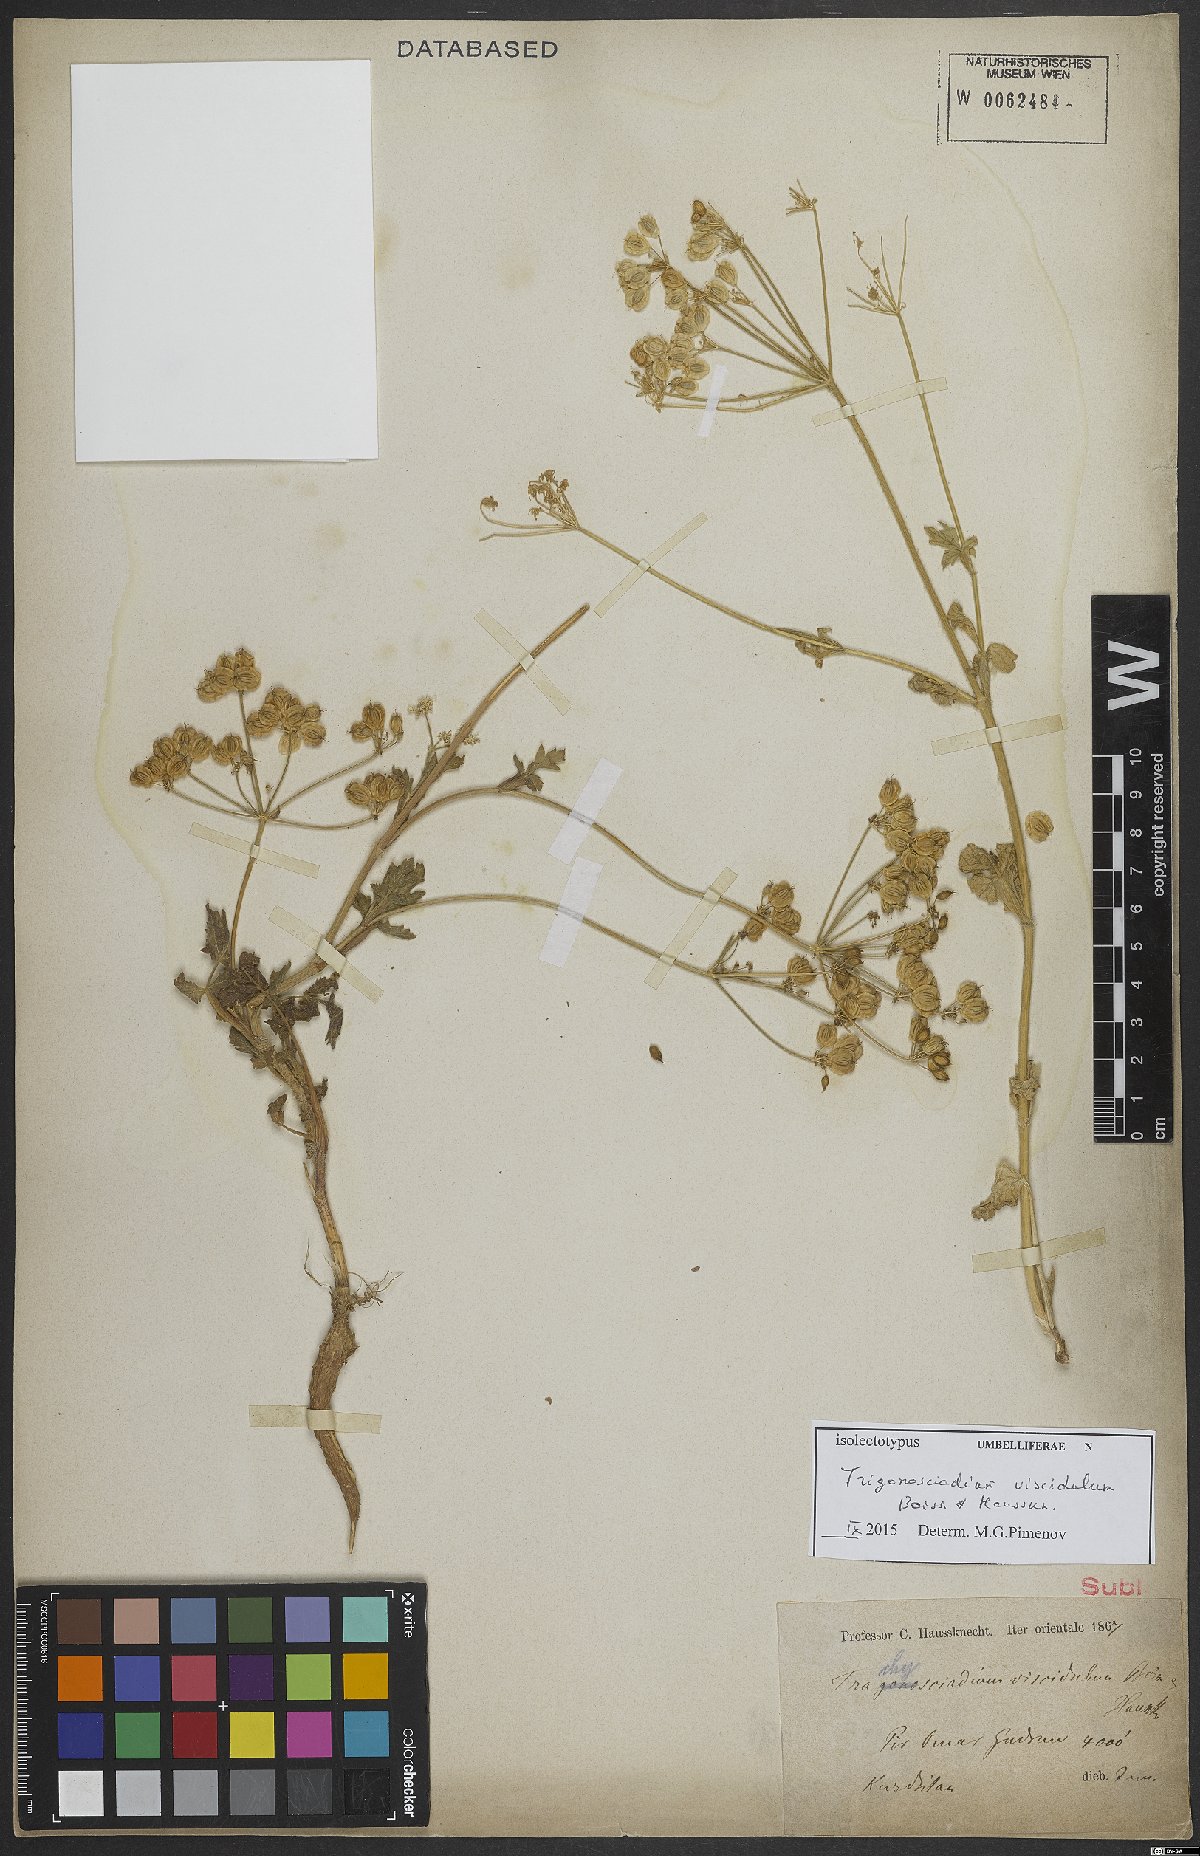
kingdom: Plantae
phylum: Tracheophyta
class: Magnoliopsida
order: Apiales
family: Apiaceae
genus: Trigonosciadium
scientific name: Trigonosciadium viscidulum
